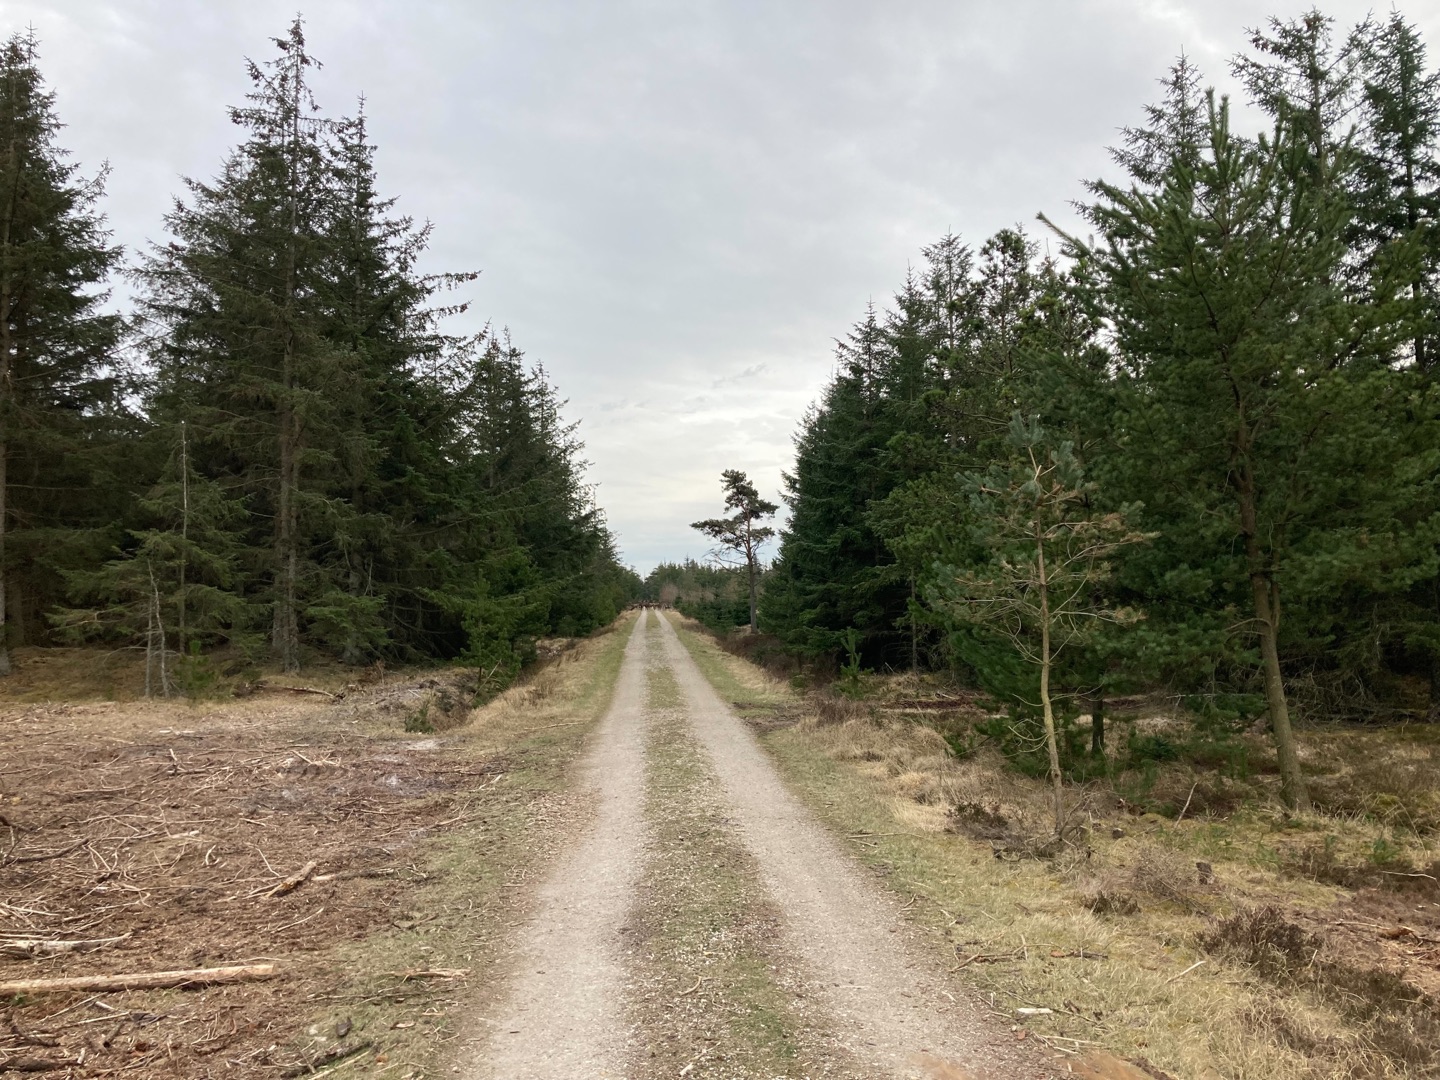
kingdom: Animalia
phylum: Chordata
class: Mammalia
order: Artiodactyla
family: Cervidae
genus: Cervus
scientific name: Cervus elaphus
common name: Krondyr
